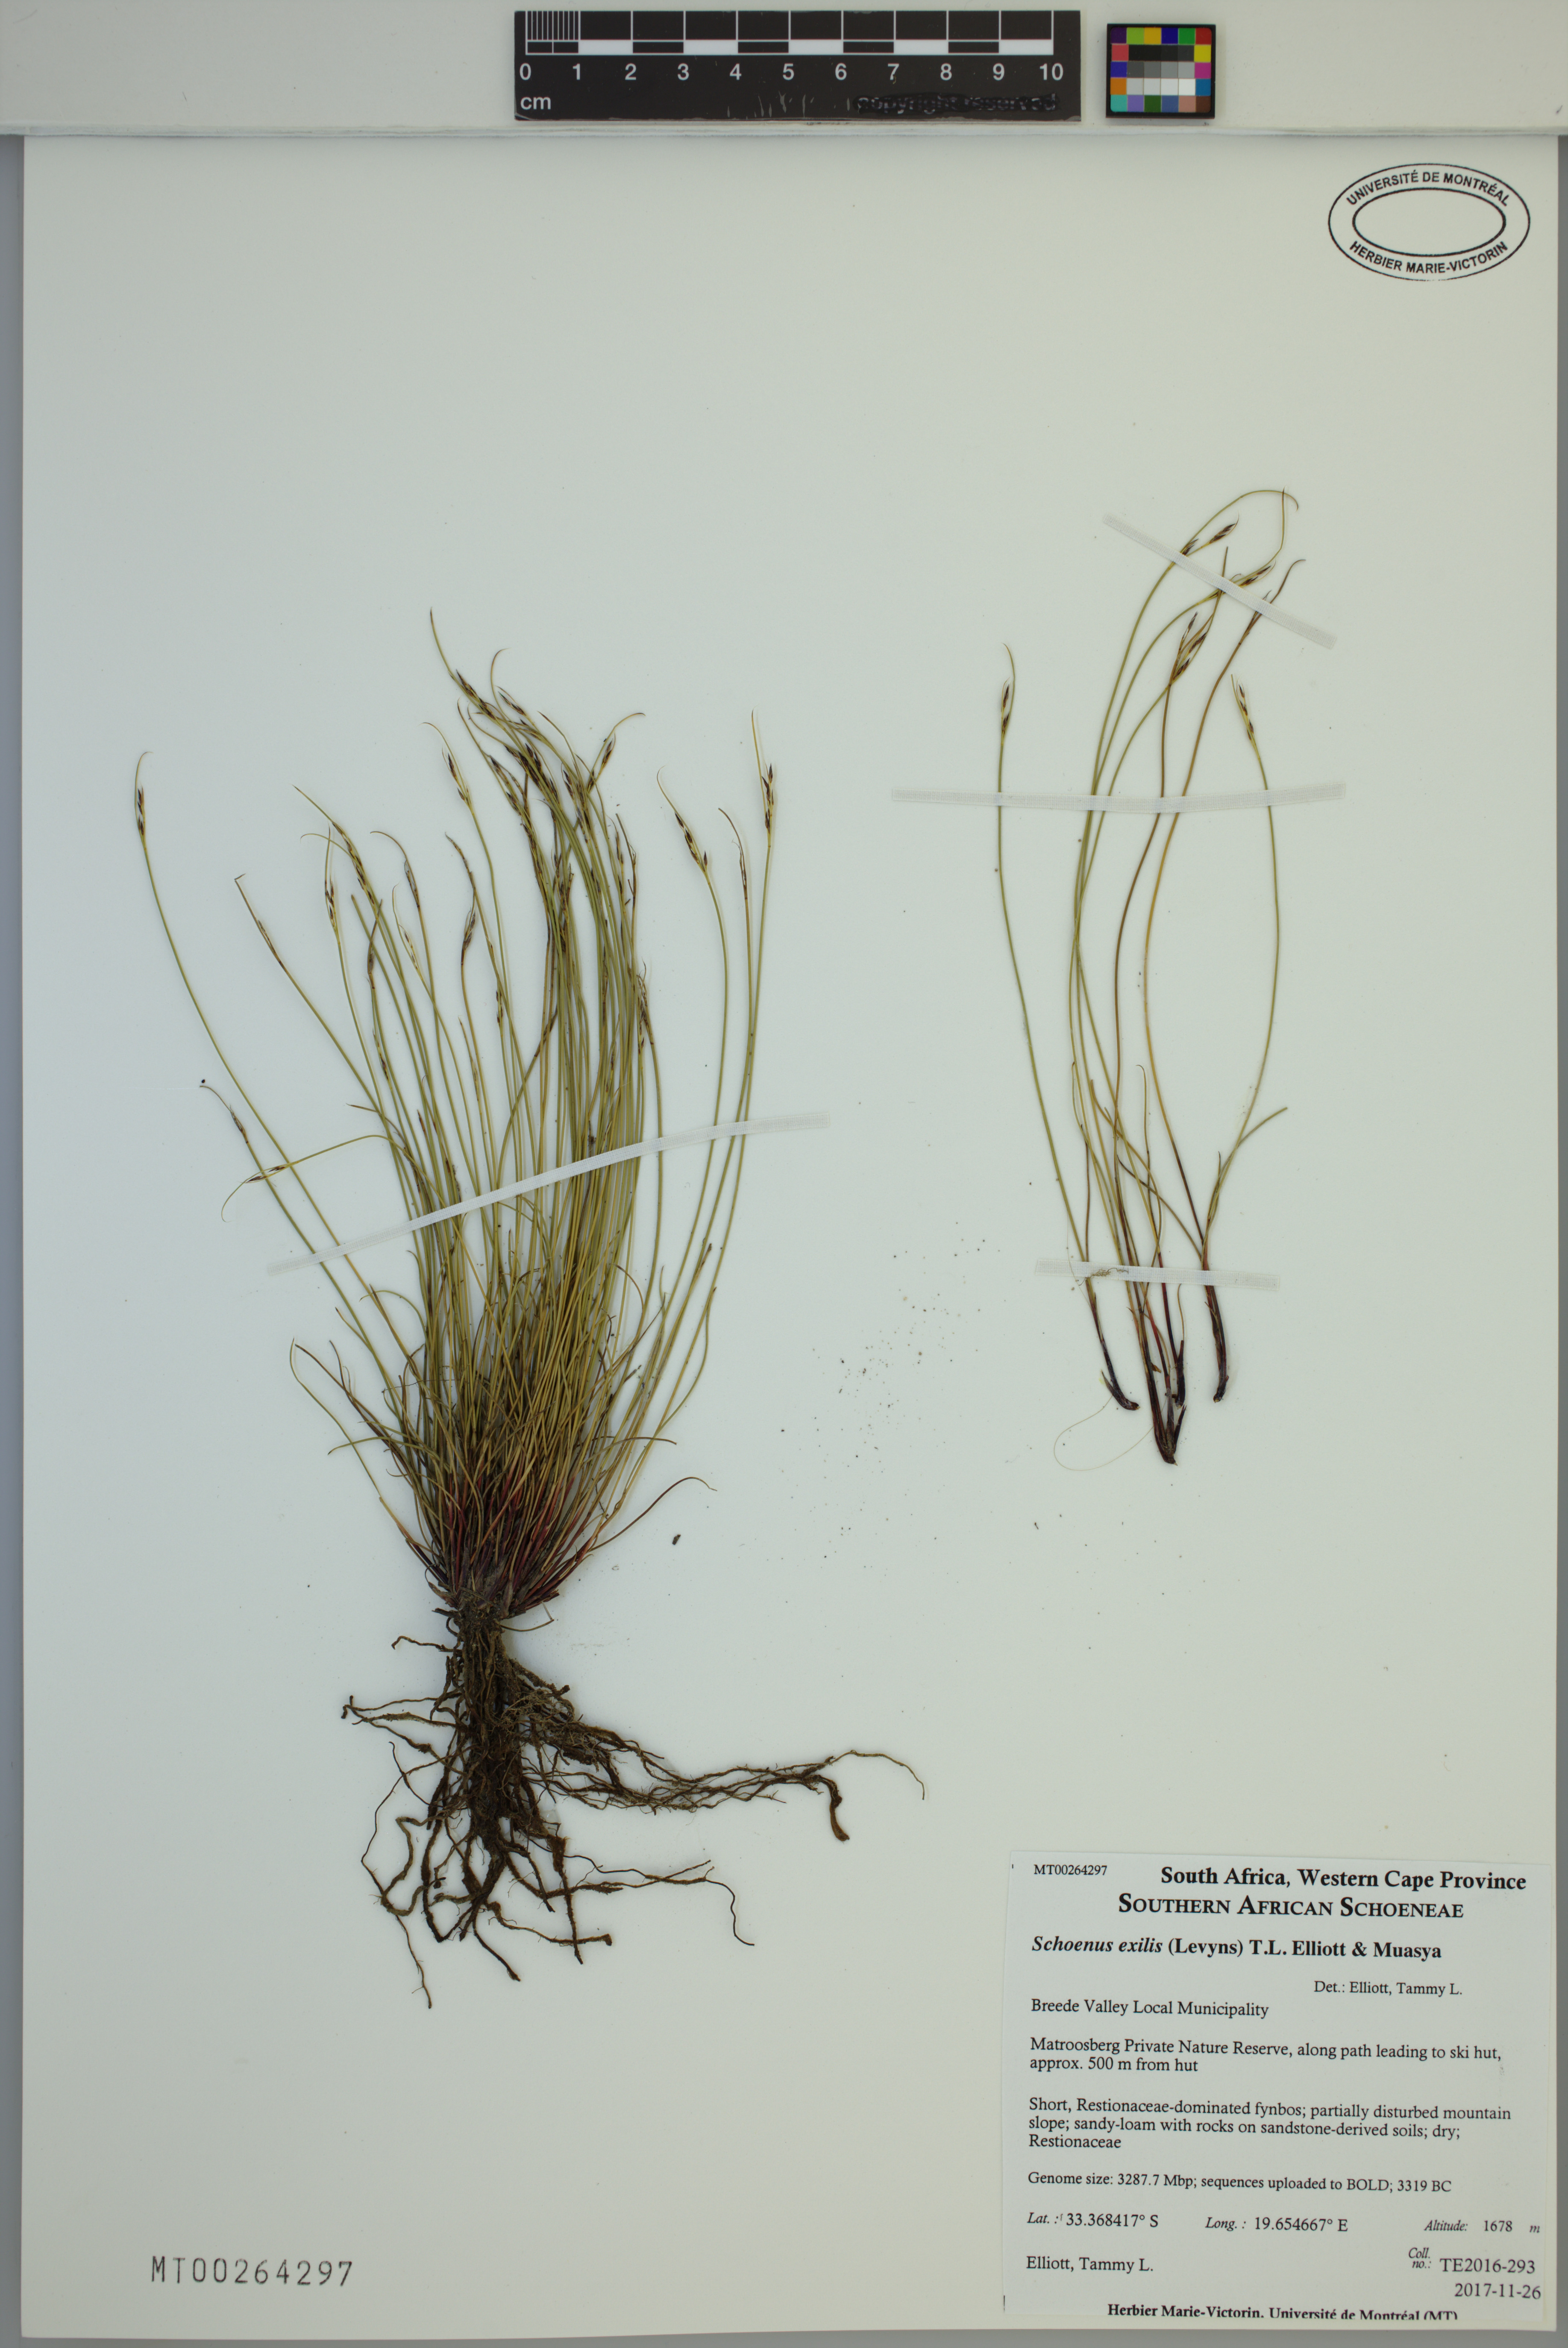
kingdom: Plantae
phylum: Tracheophyta
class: Liliopsida
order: Poales
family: Cyperaceae
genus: Schoenus
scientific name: Schoenus exilis
